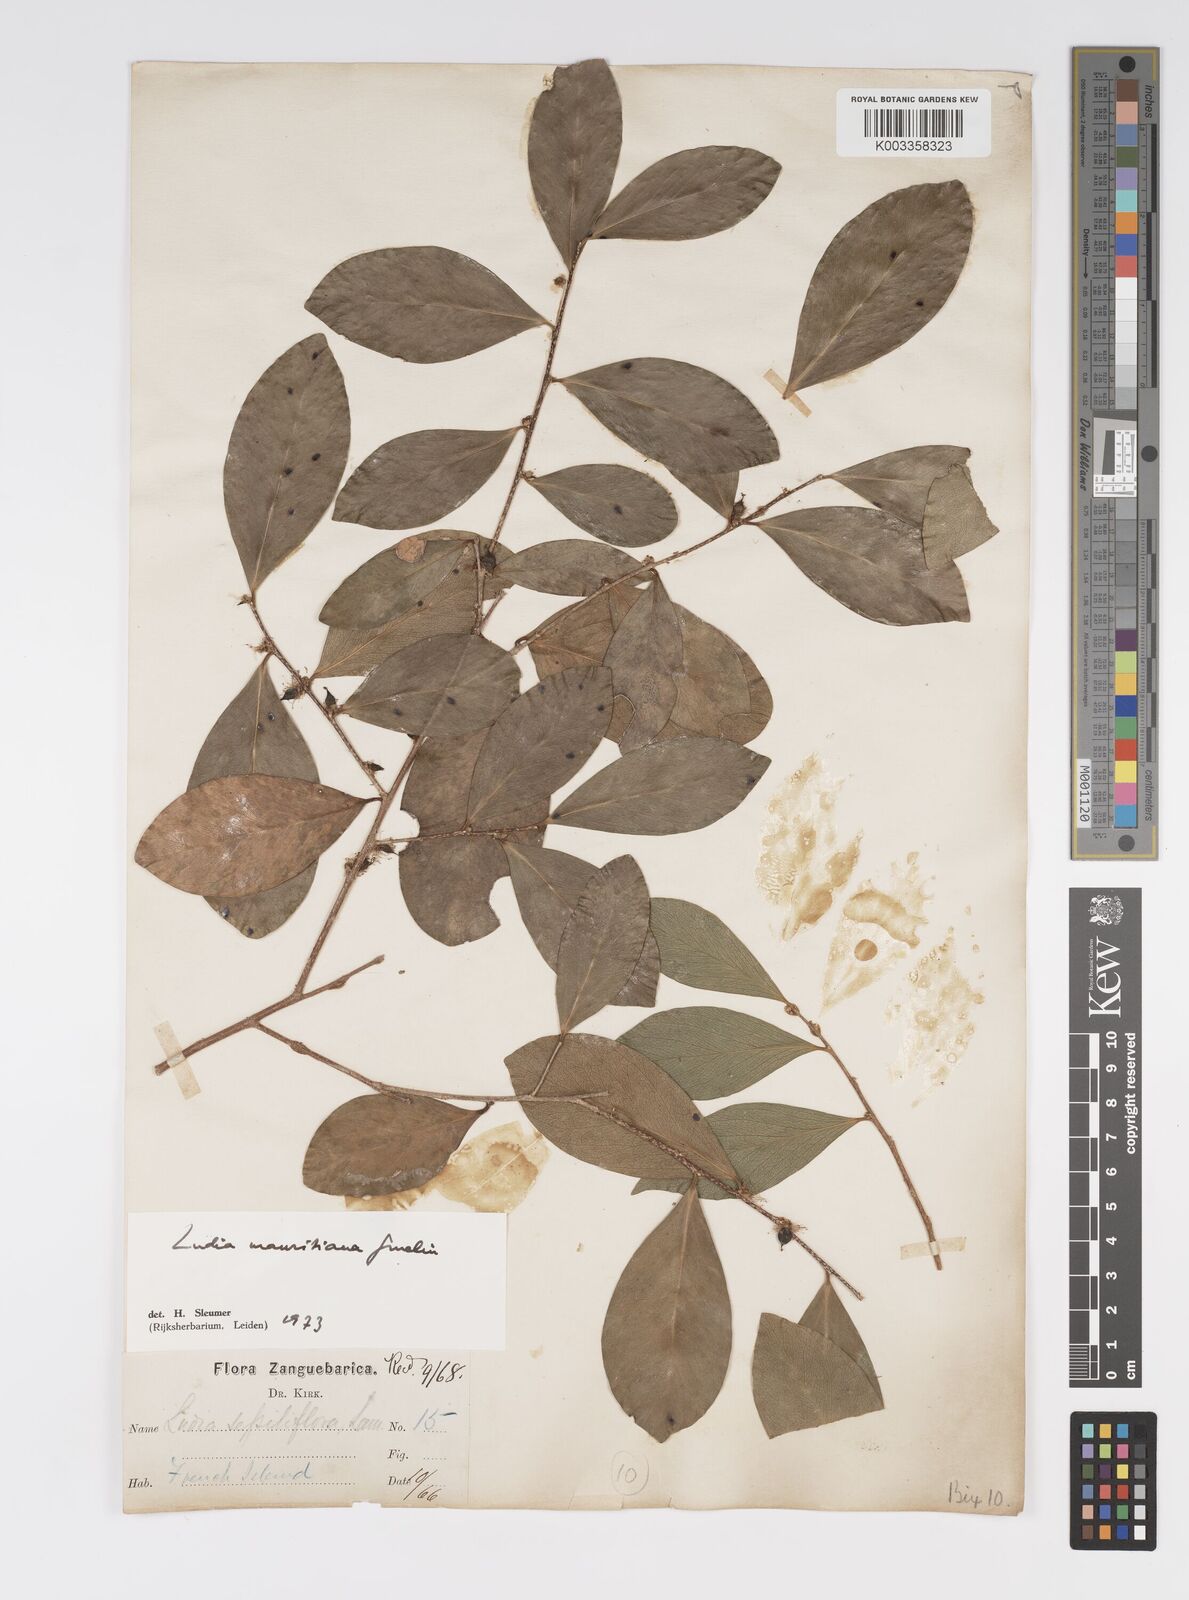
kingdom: Plantae
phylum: Tracheophyta
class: Magnoliopsida
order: Malpighiales
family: Salicaceae
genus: Ludia
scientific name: Ludia mauritiana
